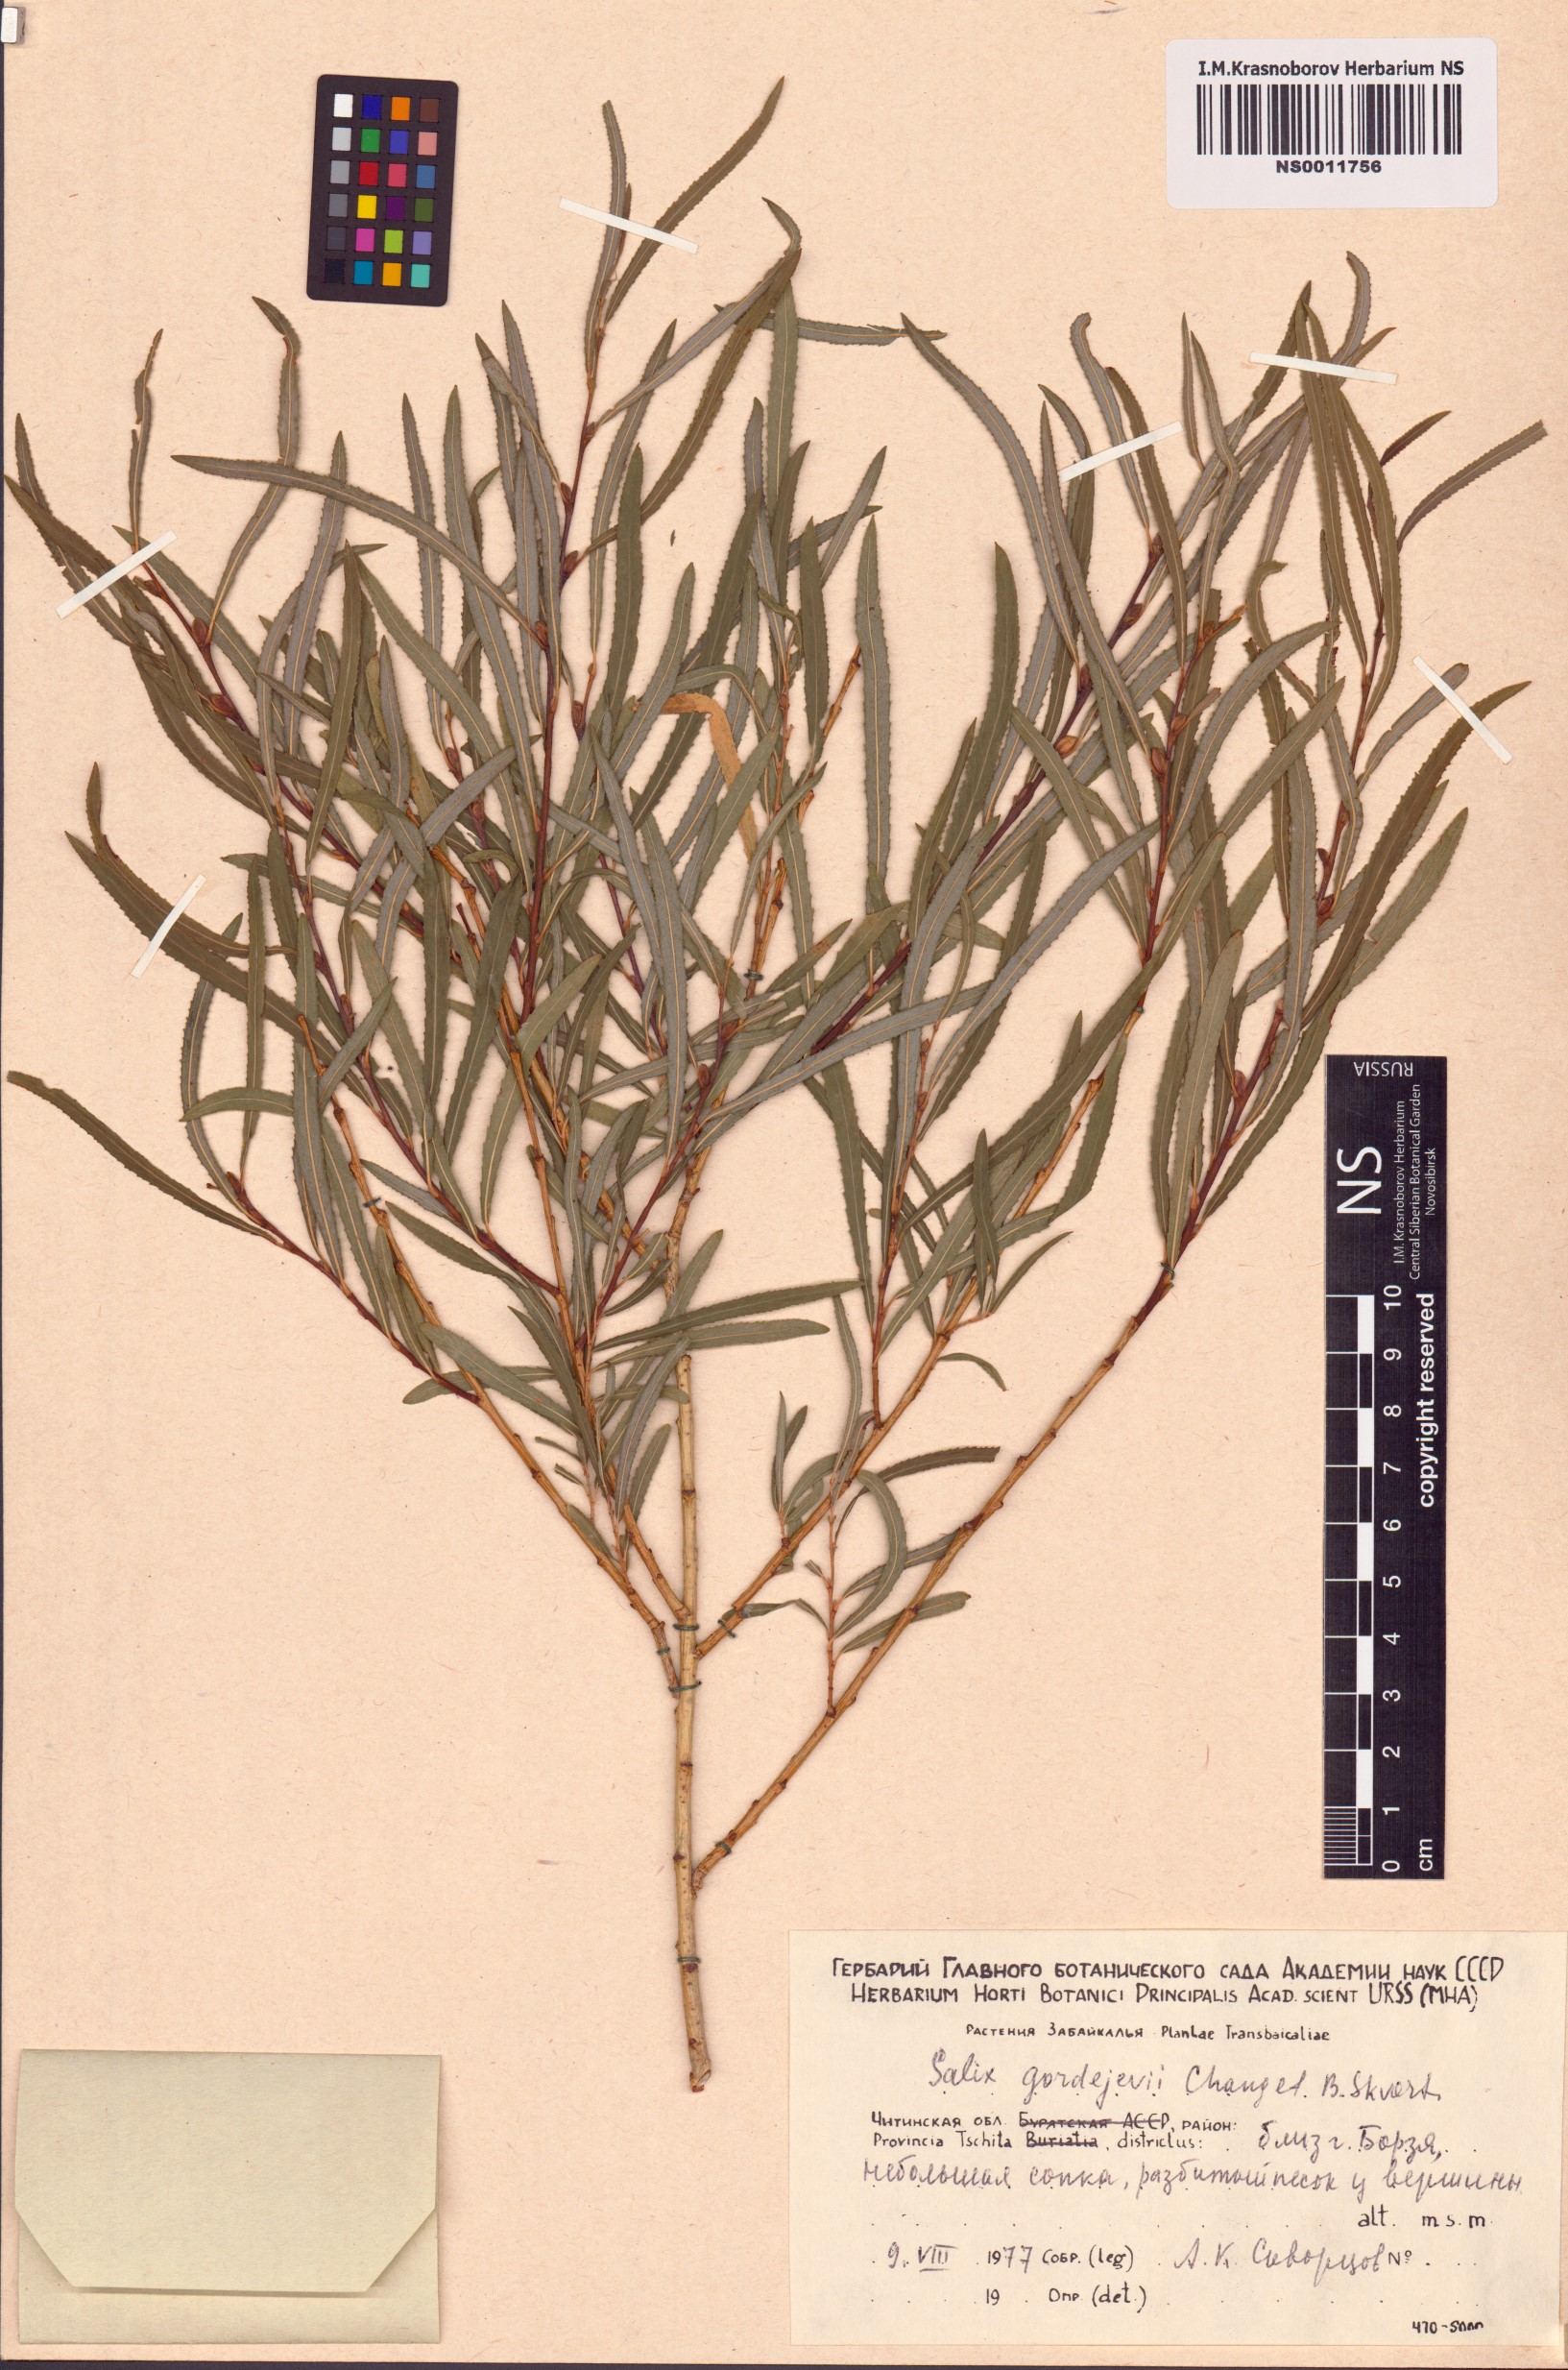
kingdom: Plantae
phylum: Tracheophyta
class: Magnoliopsida
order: Malpighiales
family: Salicaceae
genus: Salix
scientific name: Salix gordejevii
